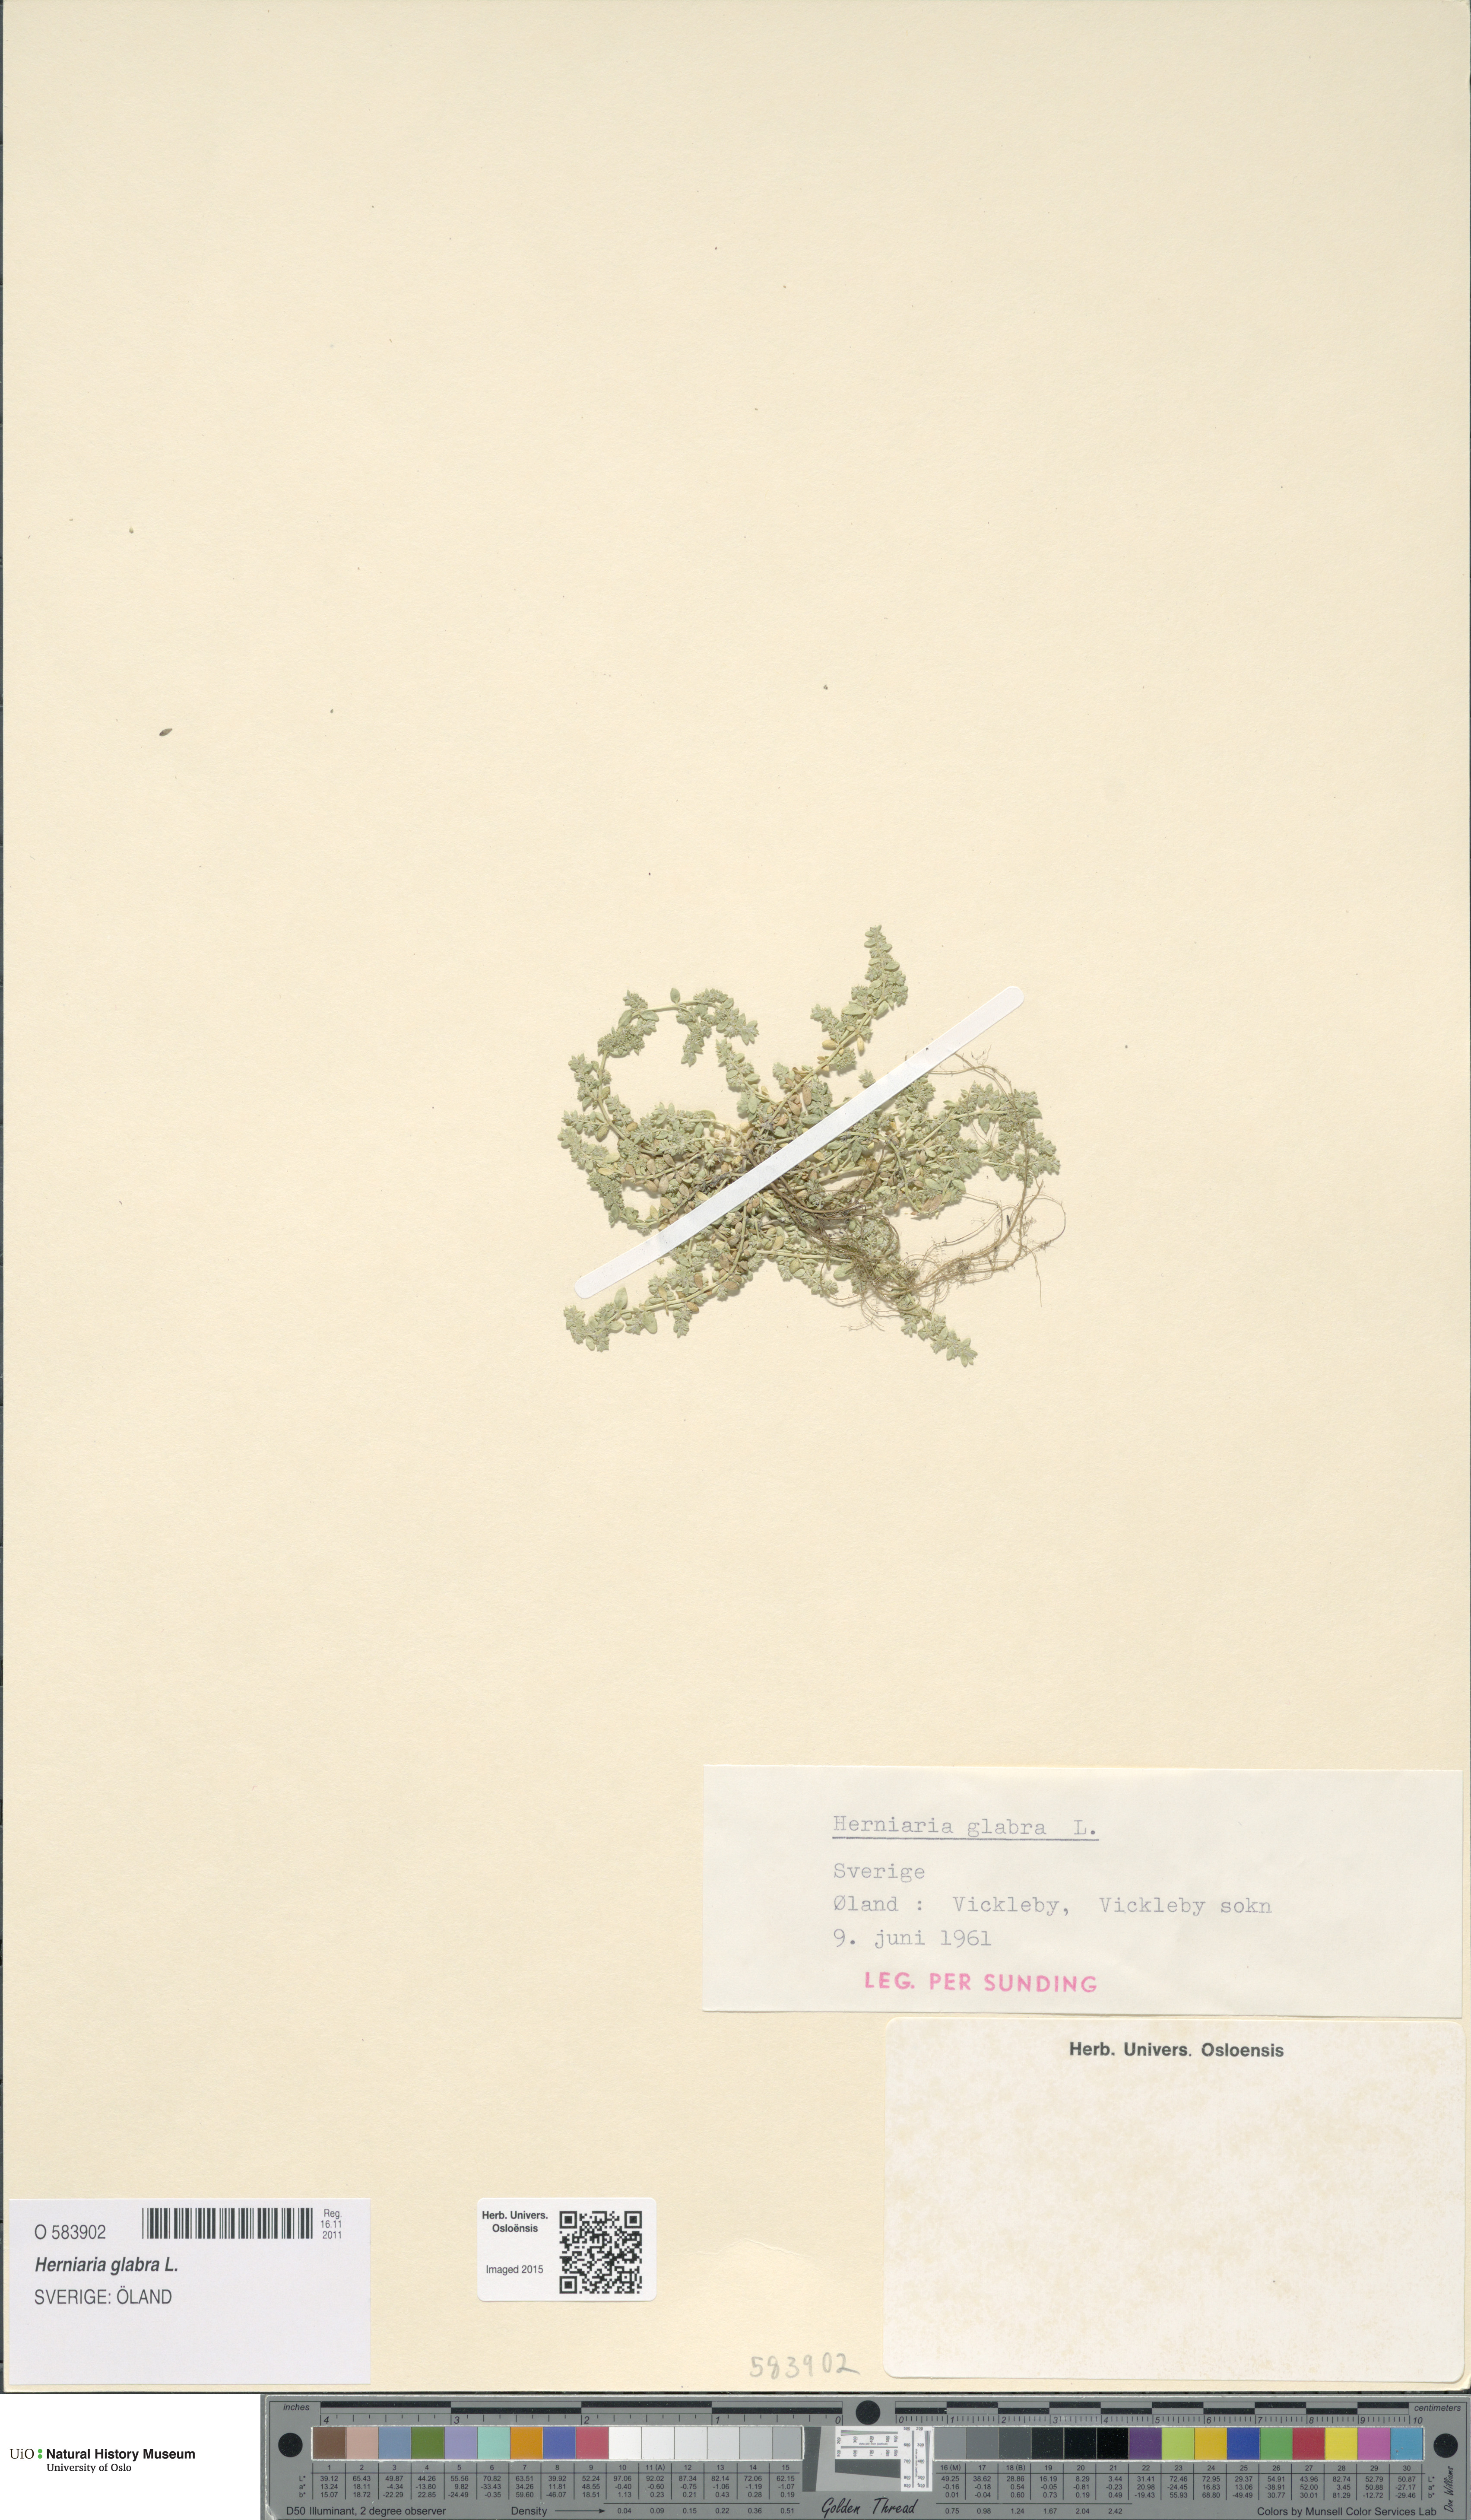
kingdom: Plantae
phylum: Tracheophyta
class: Magnoliopsida
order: Caryophyllales
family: Caryophyllaceae
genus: Herniaria
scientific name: Herniaria glabra
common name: Smooth rupturewort
